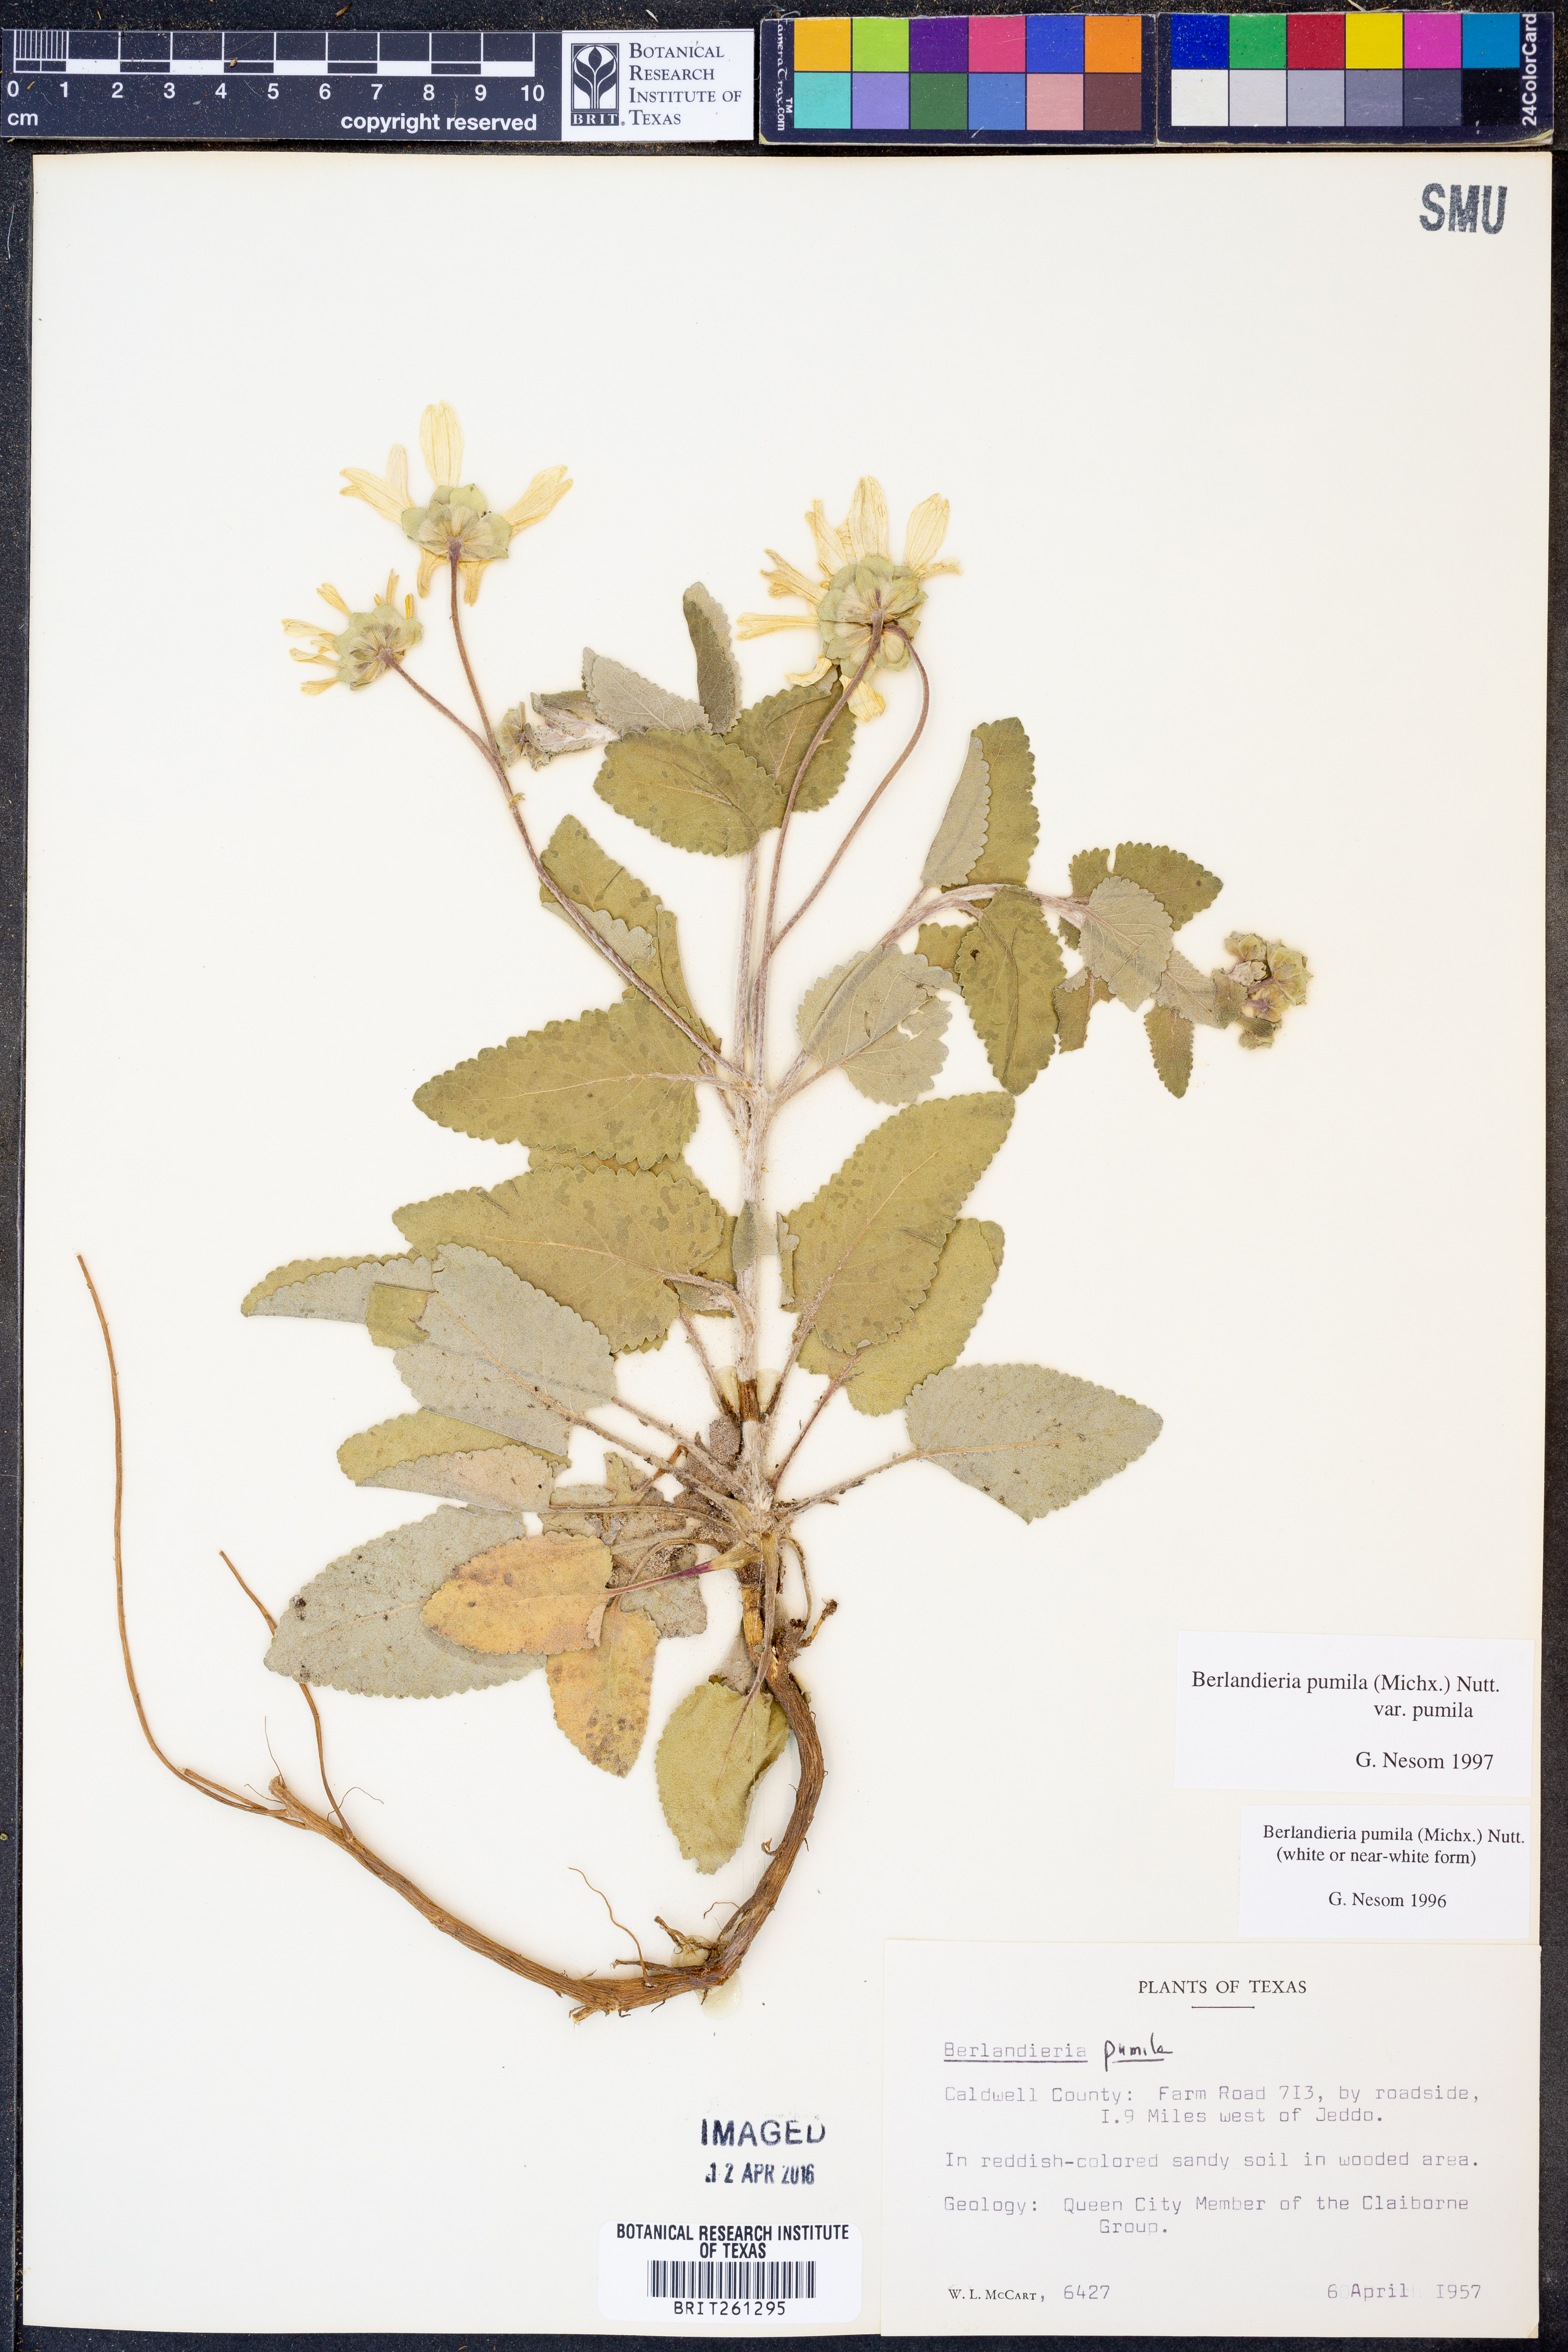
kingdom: Plantae
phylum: Tracheophyta
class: Magnoliopsida
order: Asterales
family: Asteraceae
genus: Berlandiera
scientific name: Berlandiera pumila
